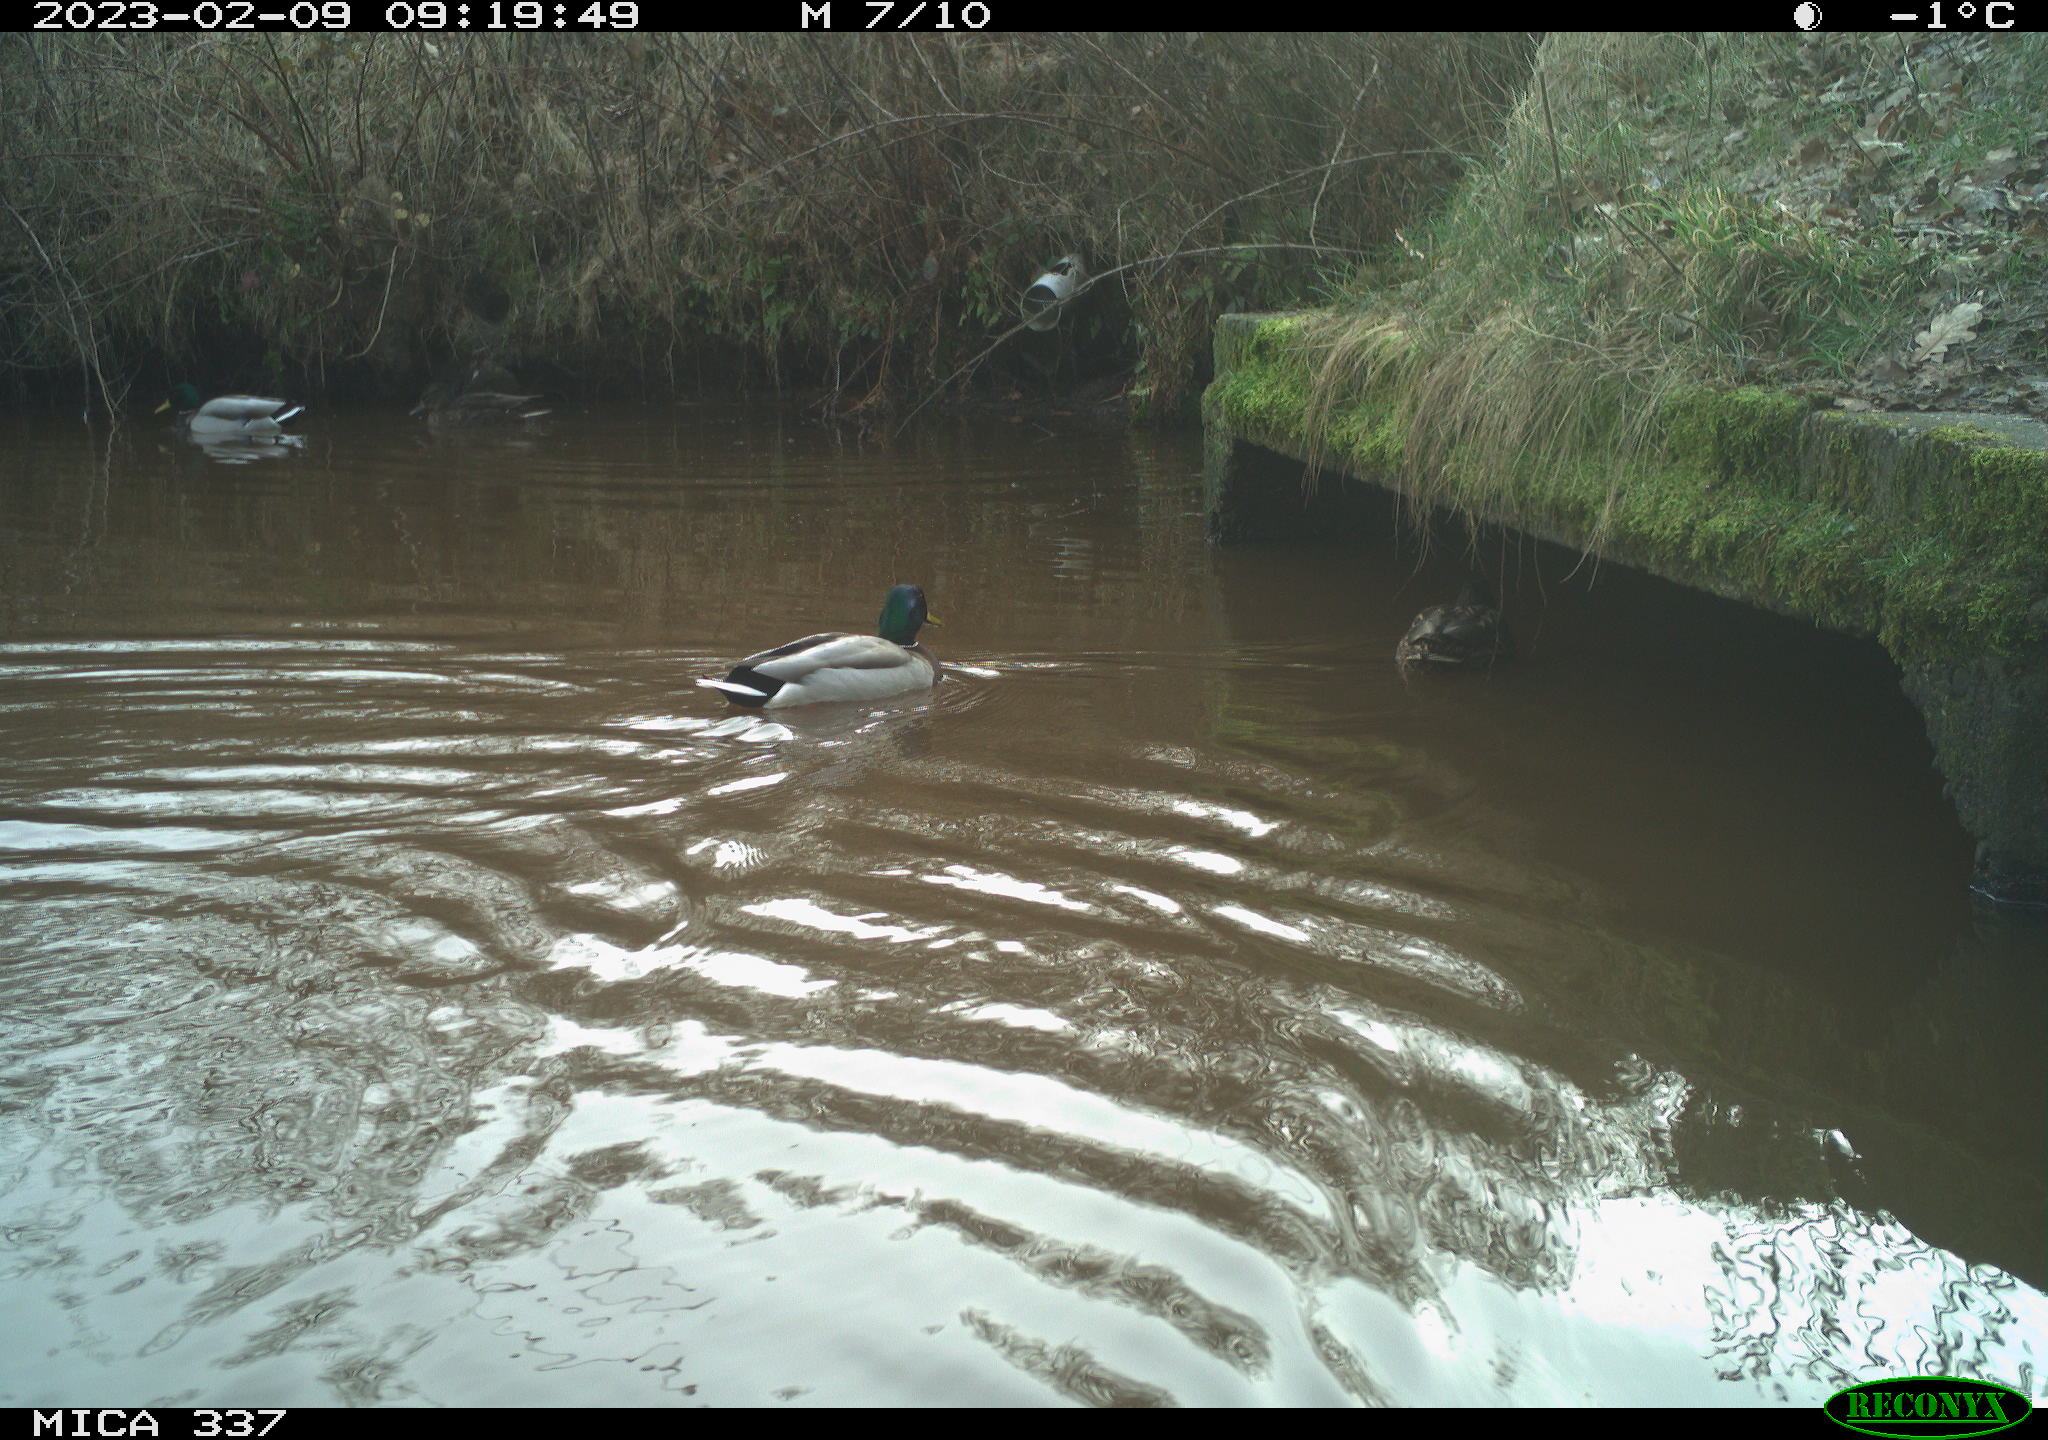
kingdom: Animalia
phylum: Chordata
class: Aves
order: Anseriformes
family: Anatidae
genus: Anas
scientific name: Anas
